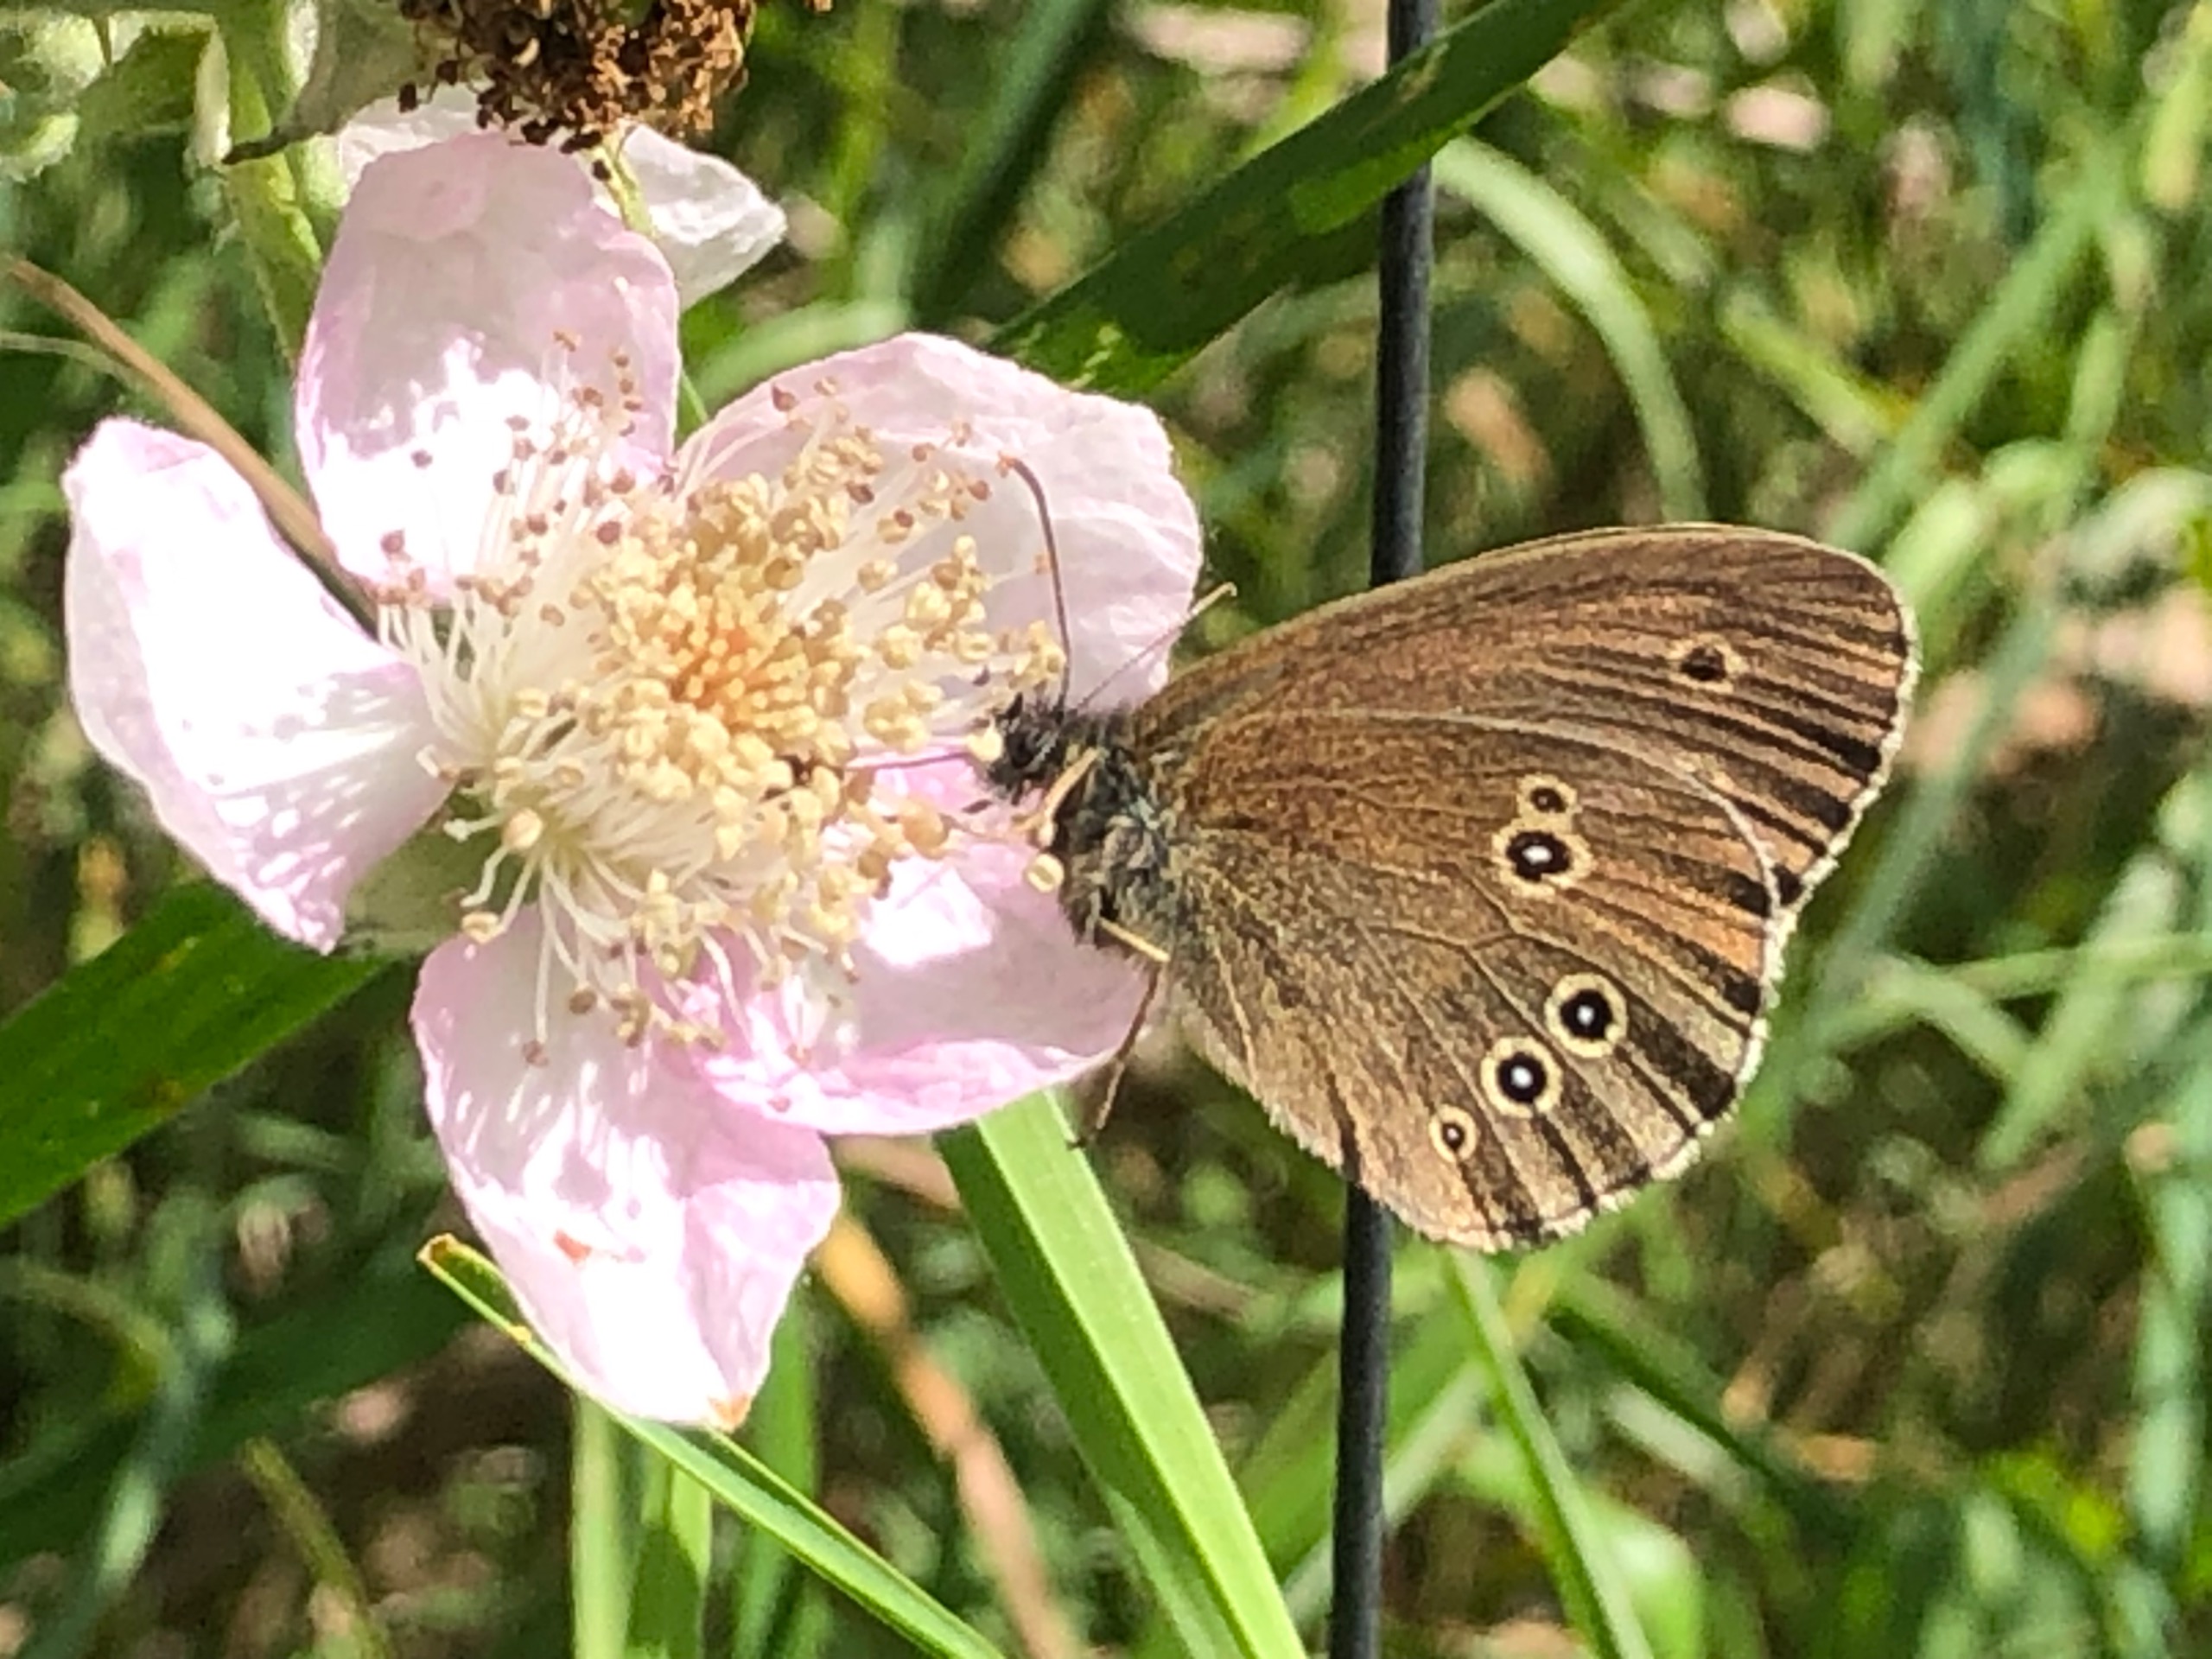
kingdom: Animalia
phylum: Arthropoda
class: Insecta
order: Lepidoptera
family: Nymphalidae
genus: Aphantopus
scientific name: Aphantopus hyperantus
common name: Engrandøje
